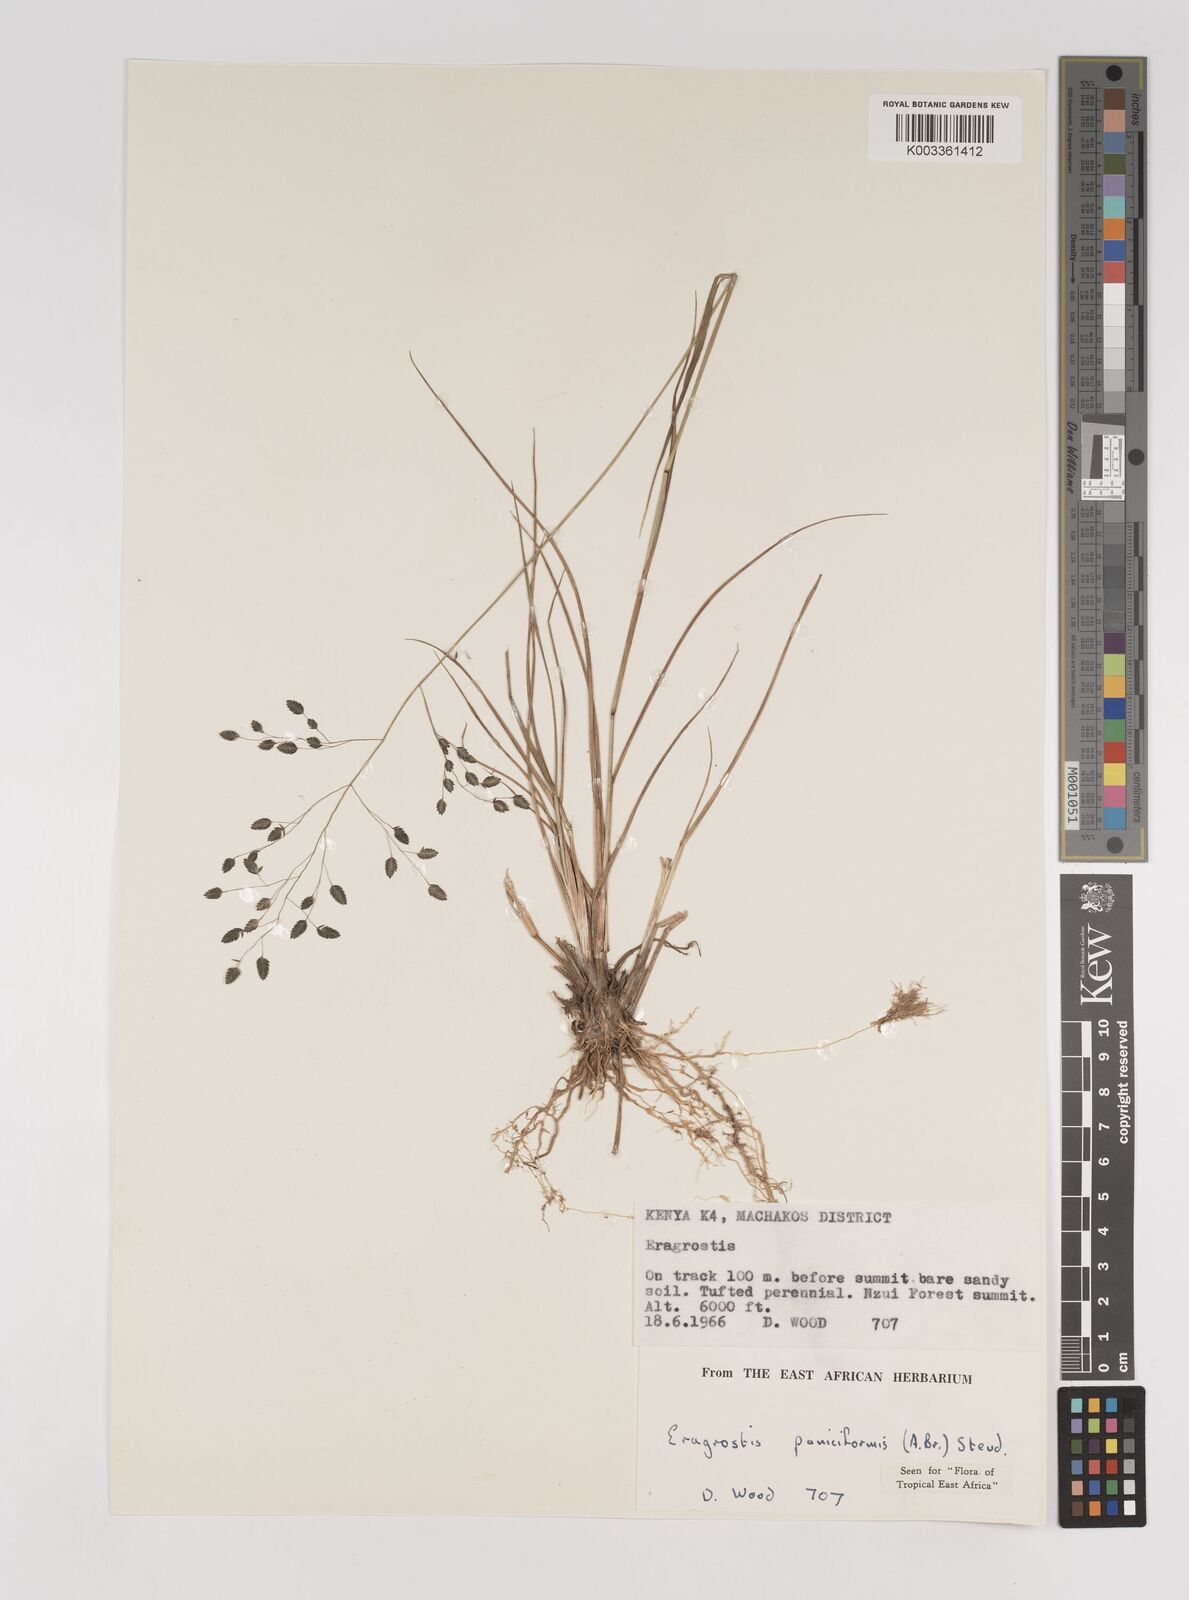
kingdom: Plantae
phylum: Tracheophyta
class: Liliopsida
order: Poales
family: Poaceae
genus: Eragrostis
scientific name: Eragrostis paniciformis
